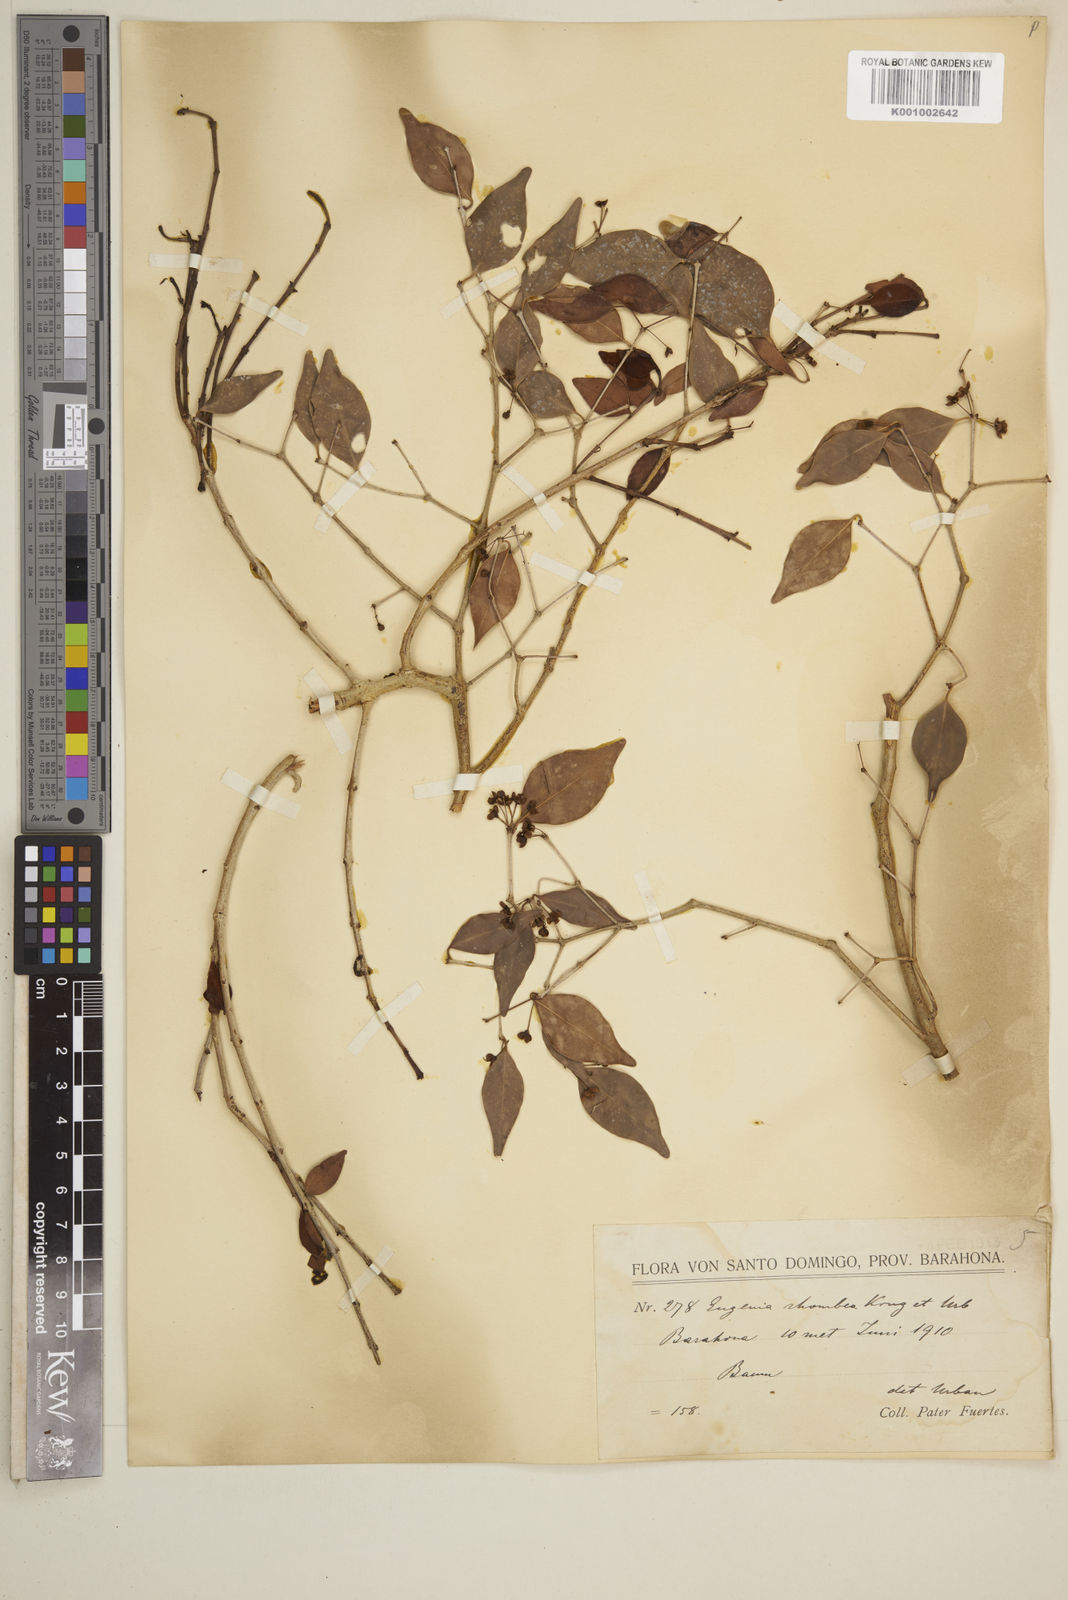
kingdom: Plantae
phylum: Tracheophyta
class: Magnoliopsida
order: Myrtales
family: Myrtaceae
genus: Eugenia
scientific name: Eugenia rhombea
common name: Pigeon berry
